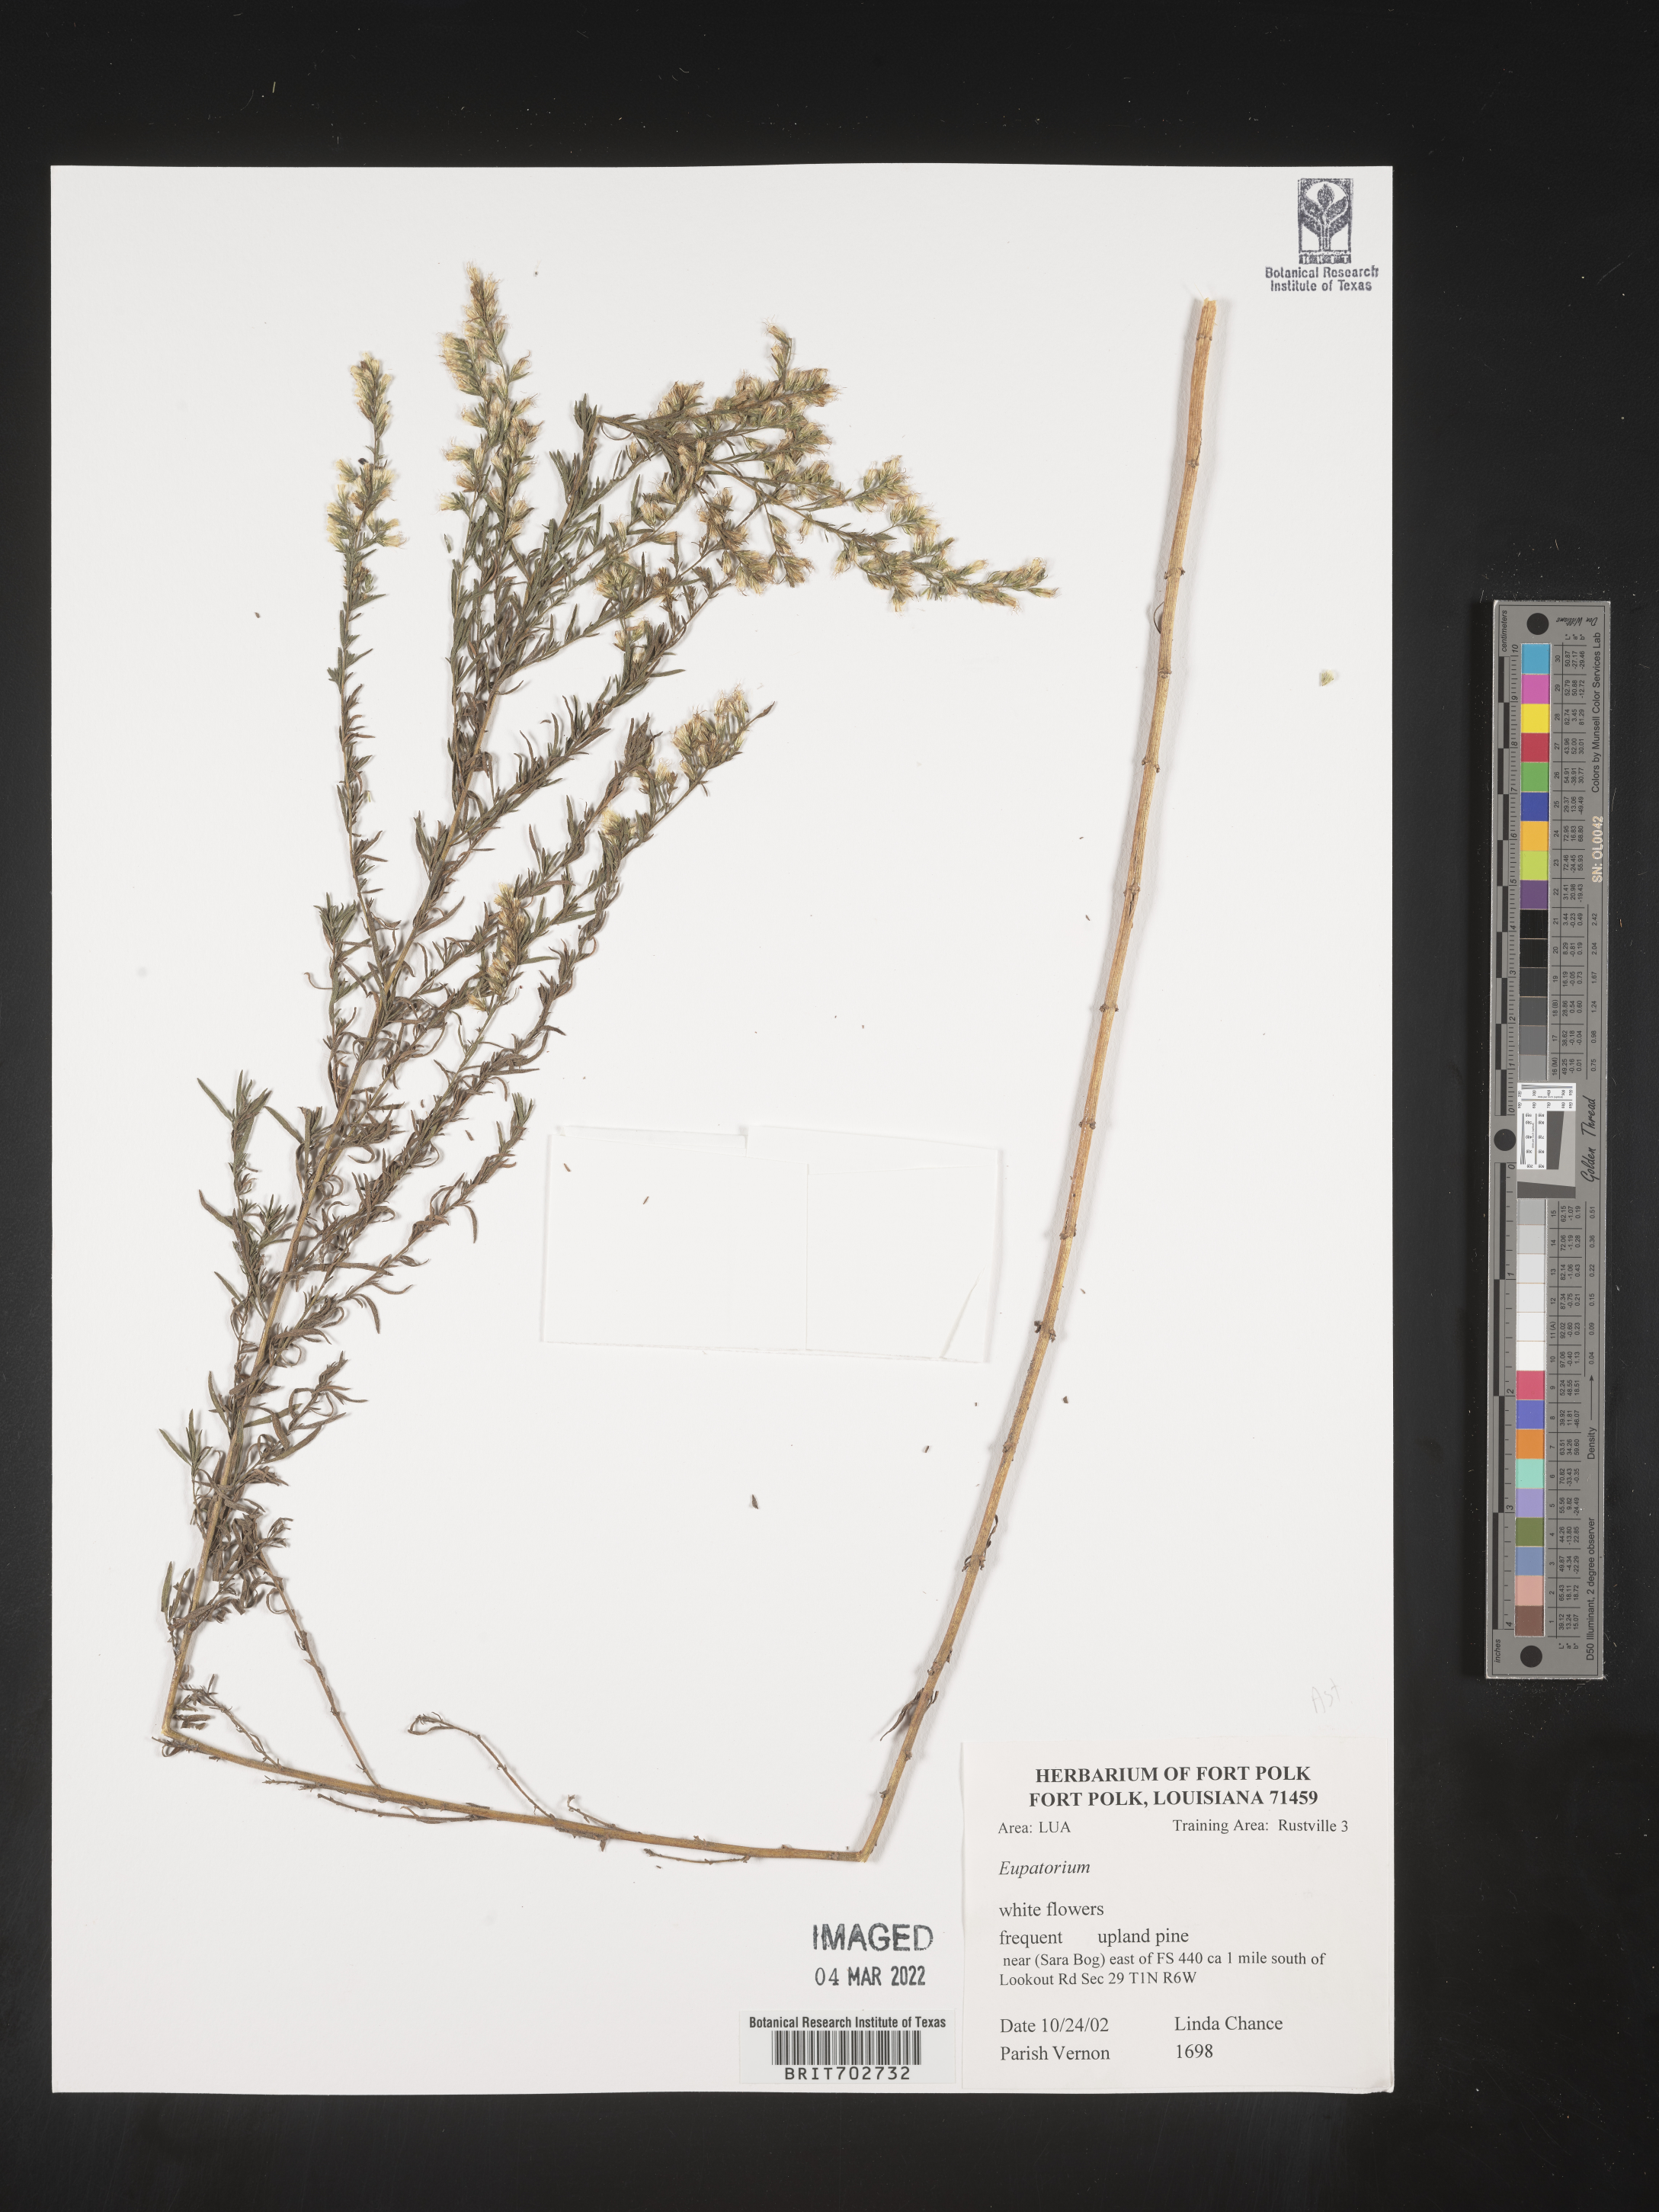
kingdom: Plantae
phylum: Tracheophyta
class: Magnoliopsida
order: Asterales
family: Asteraceae
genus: Eupatorium
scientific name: Eupatorium
